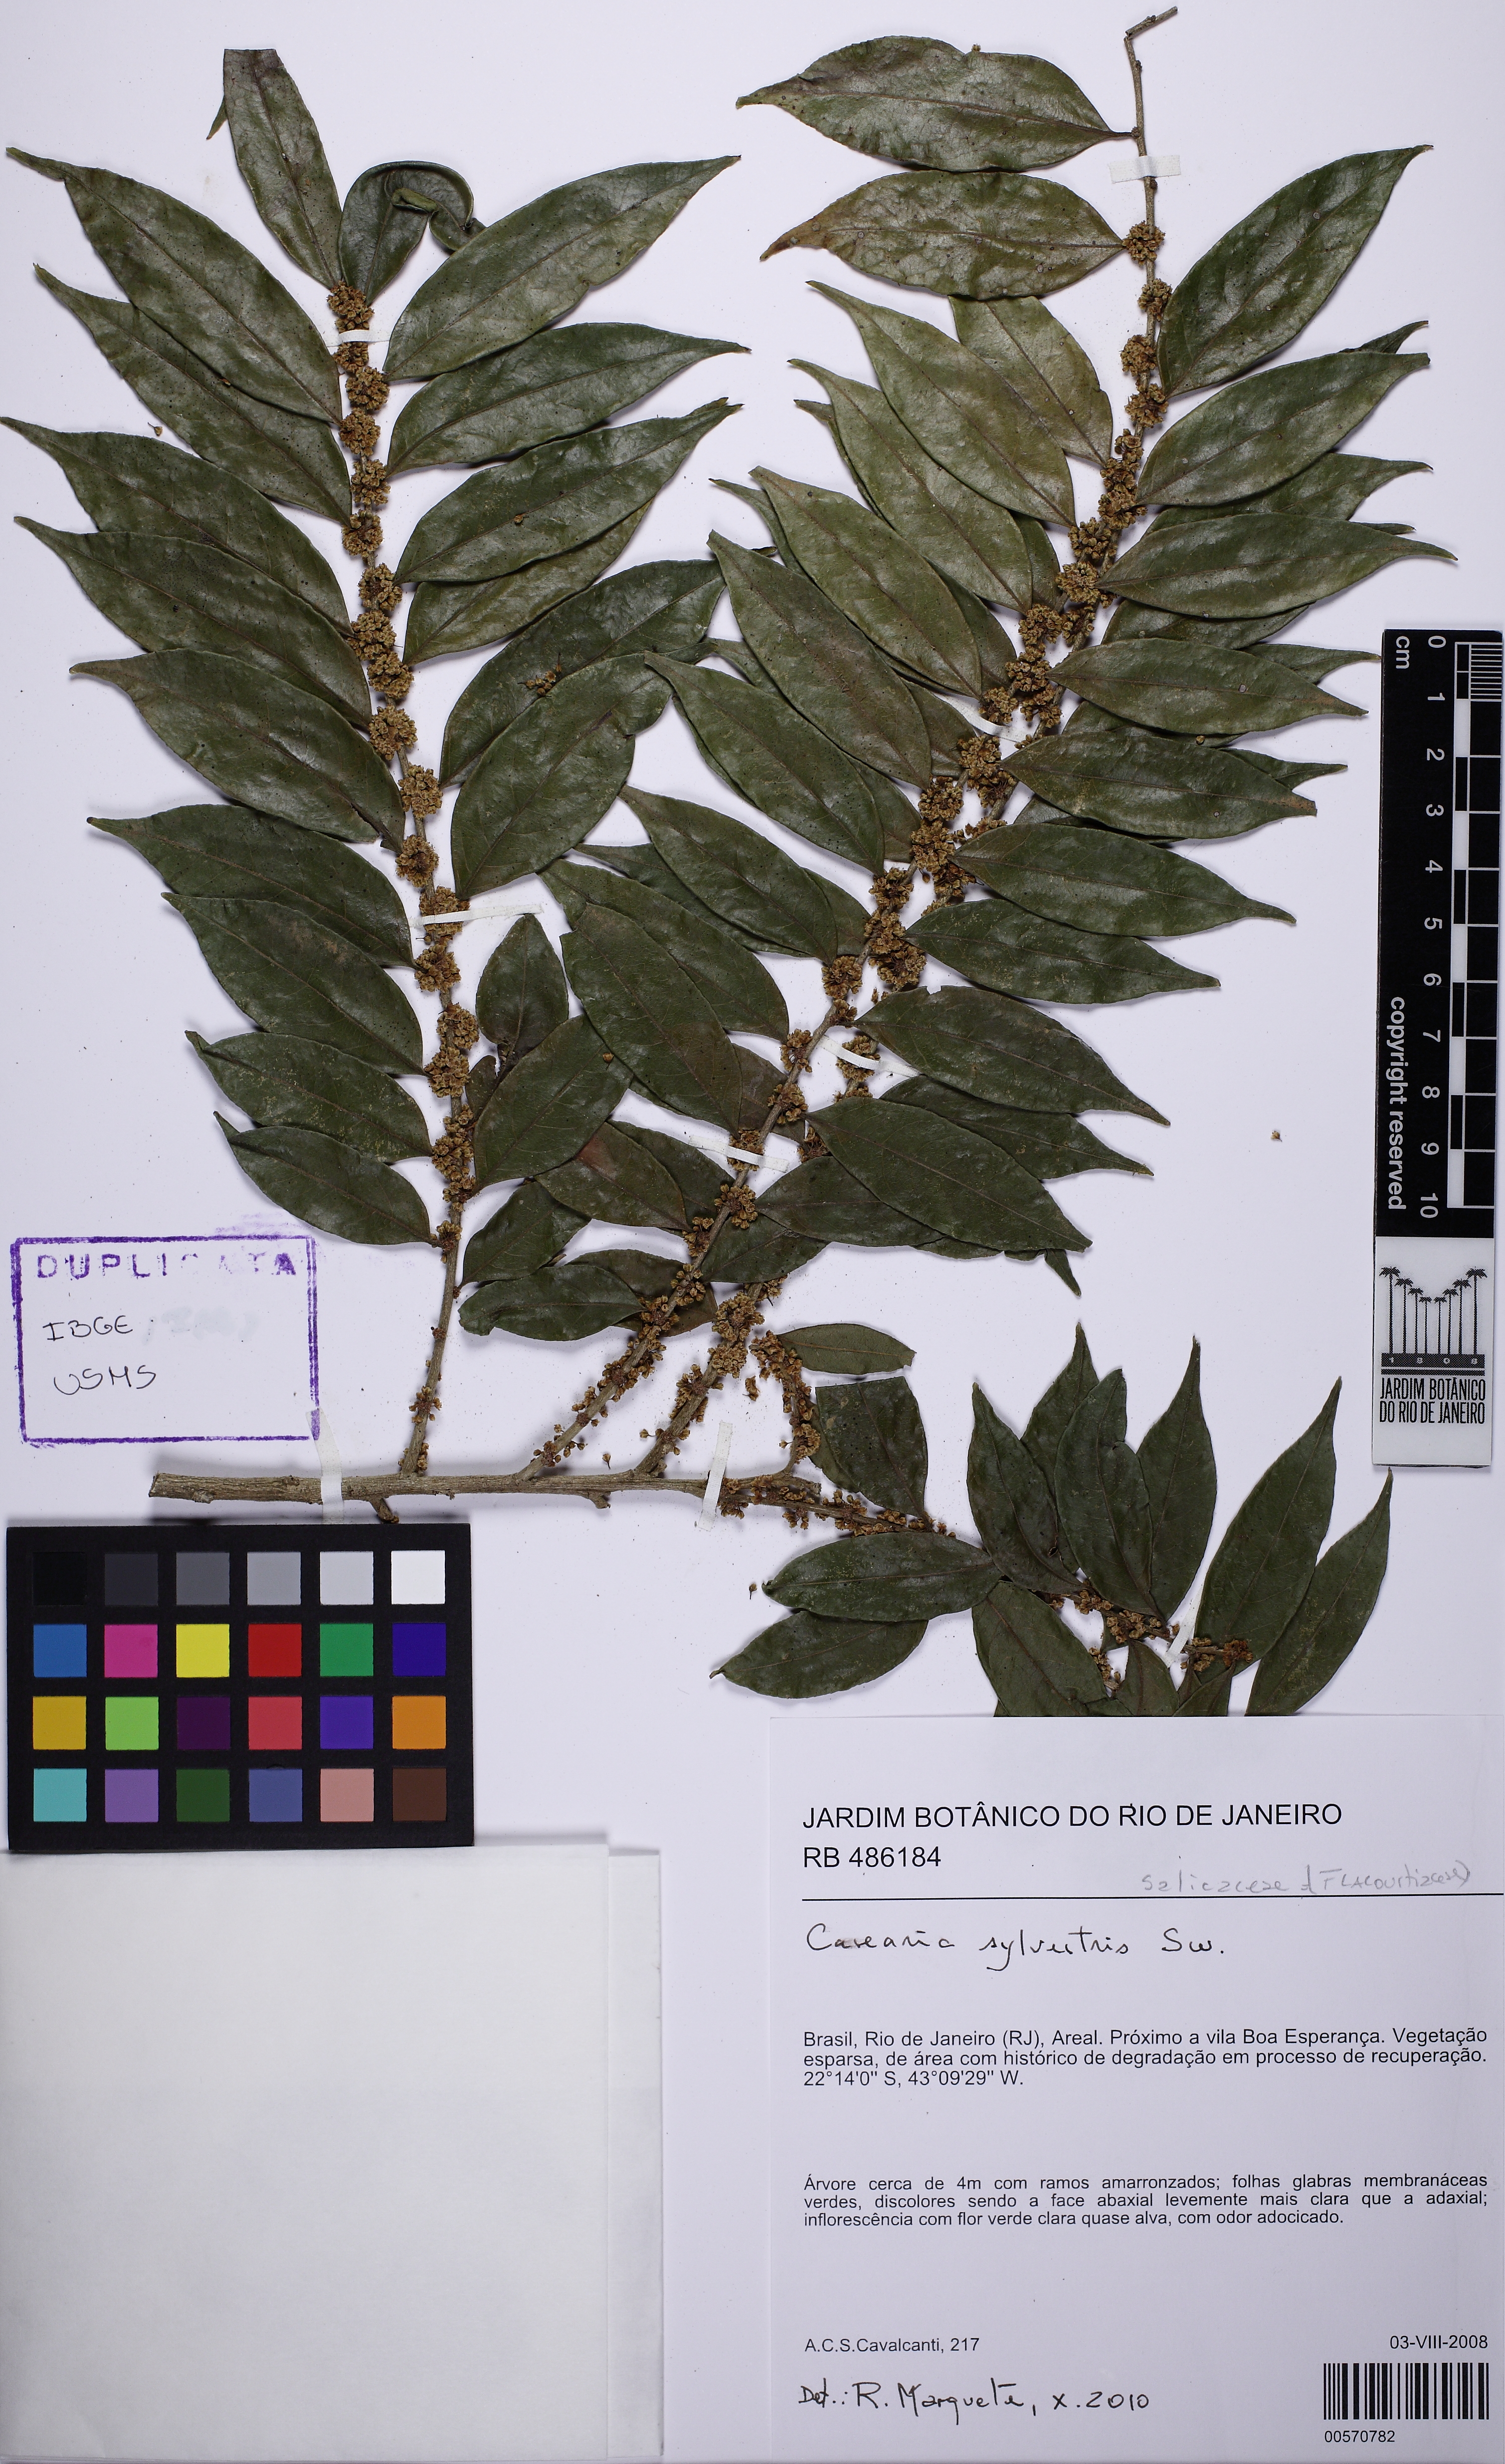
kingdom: Plantae
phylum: Tracheophyta
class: Magnoliopsida
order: Malpighiales
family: Salicaceae
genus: Casearia
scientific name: Casearia sylvestris
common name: Wild sage
